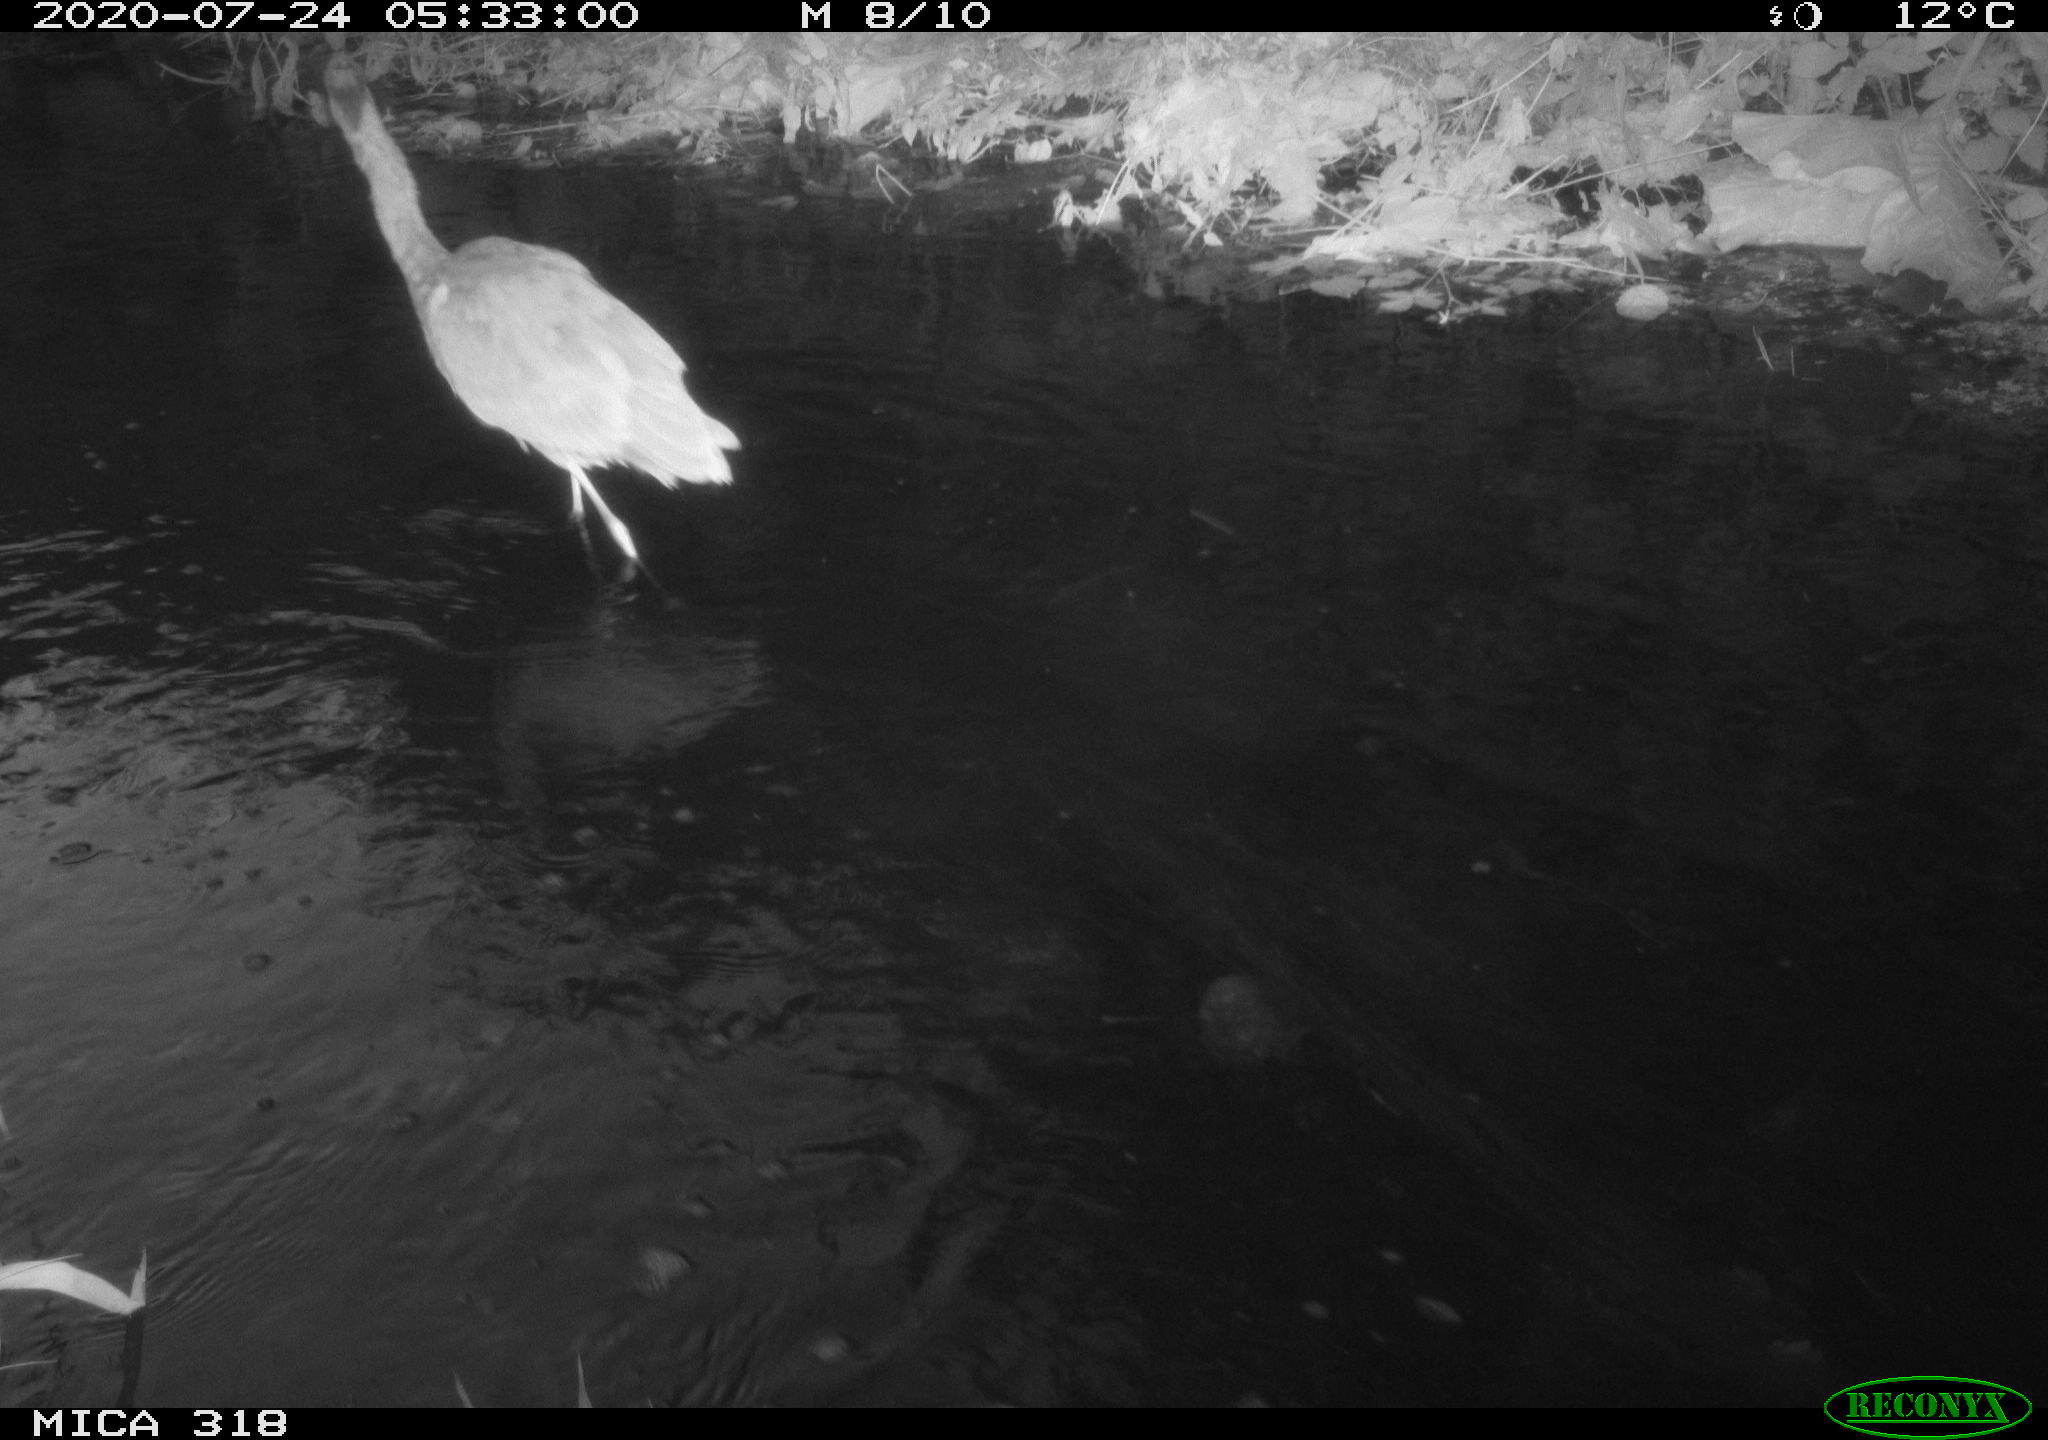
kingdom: Animalia
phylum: Chordata
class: Aves
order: Gruiformes
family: Rallidae
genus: Gallinula
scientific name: Gallinula chloropus
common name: Common moorhen
